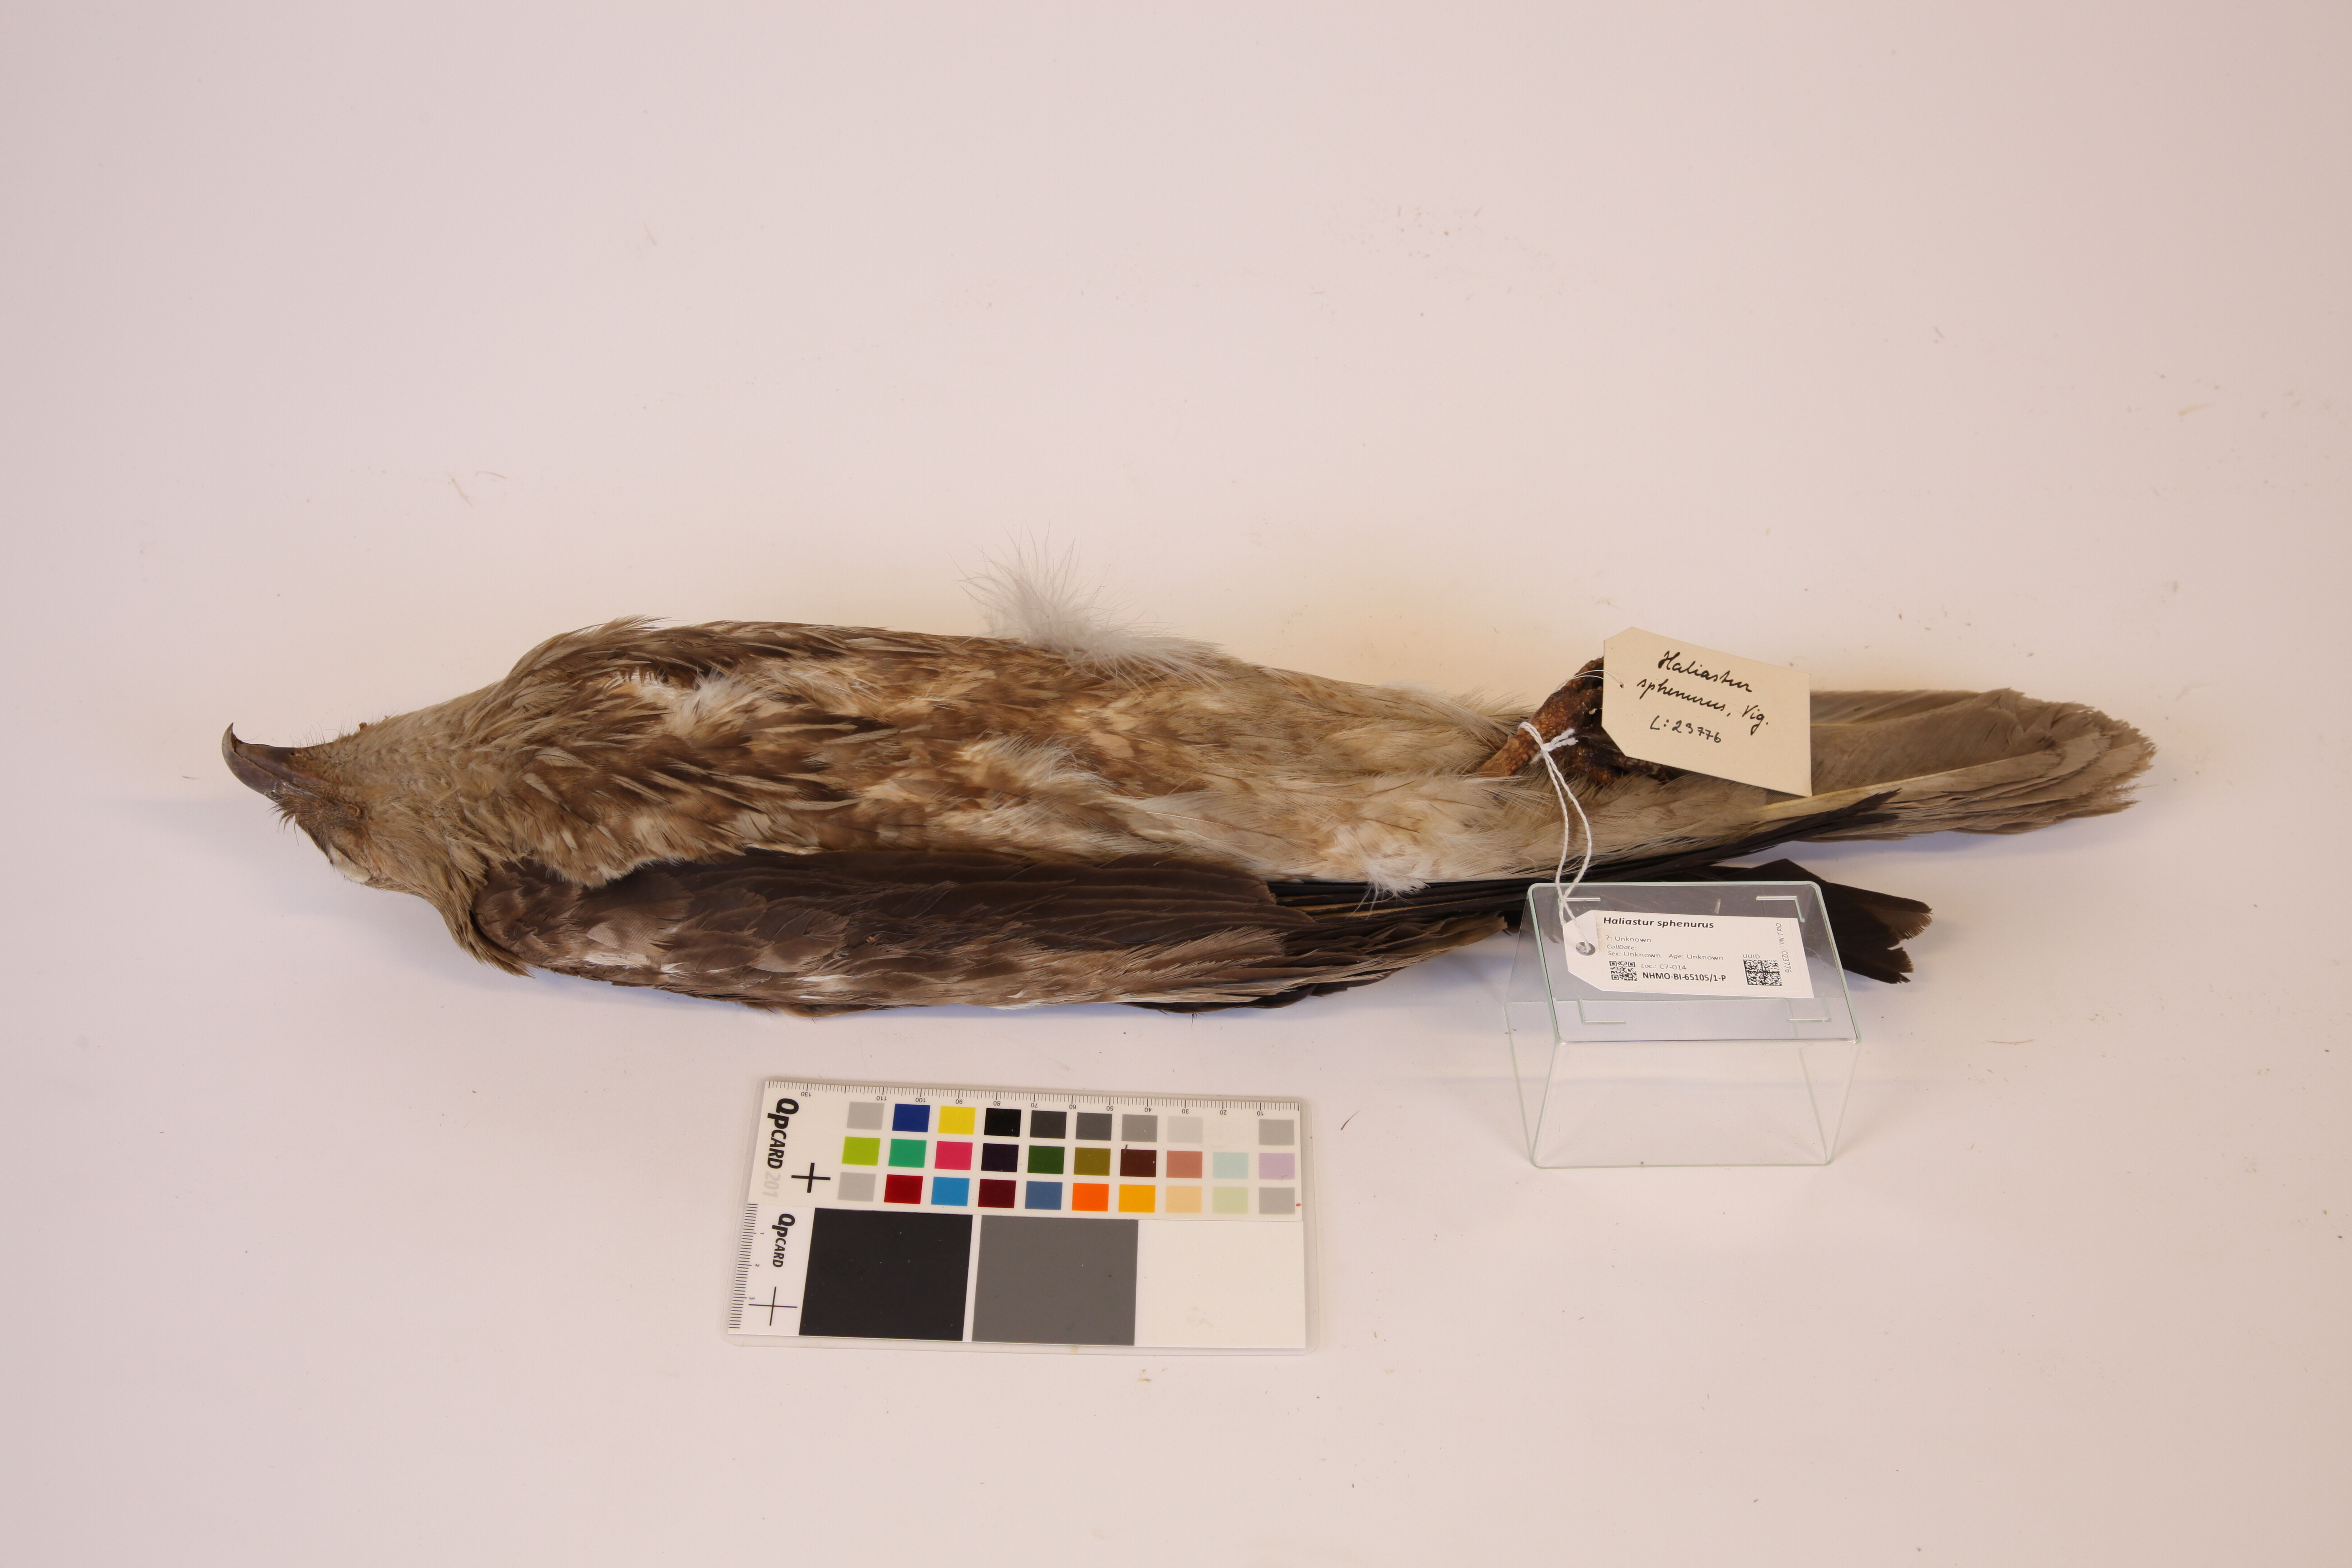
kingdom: Animalia
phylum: Chordata
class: Aves
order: Accipitriformes
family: Accipitridae
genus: Haliastur
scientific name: Haliastur sphenurus
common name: Whistling kite
